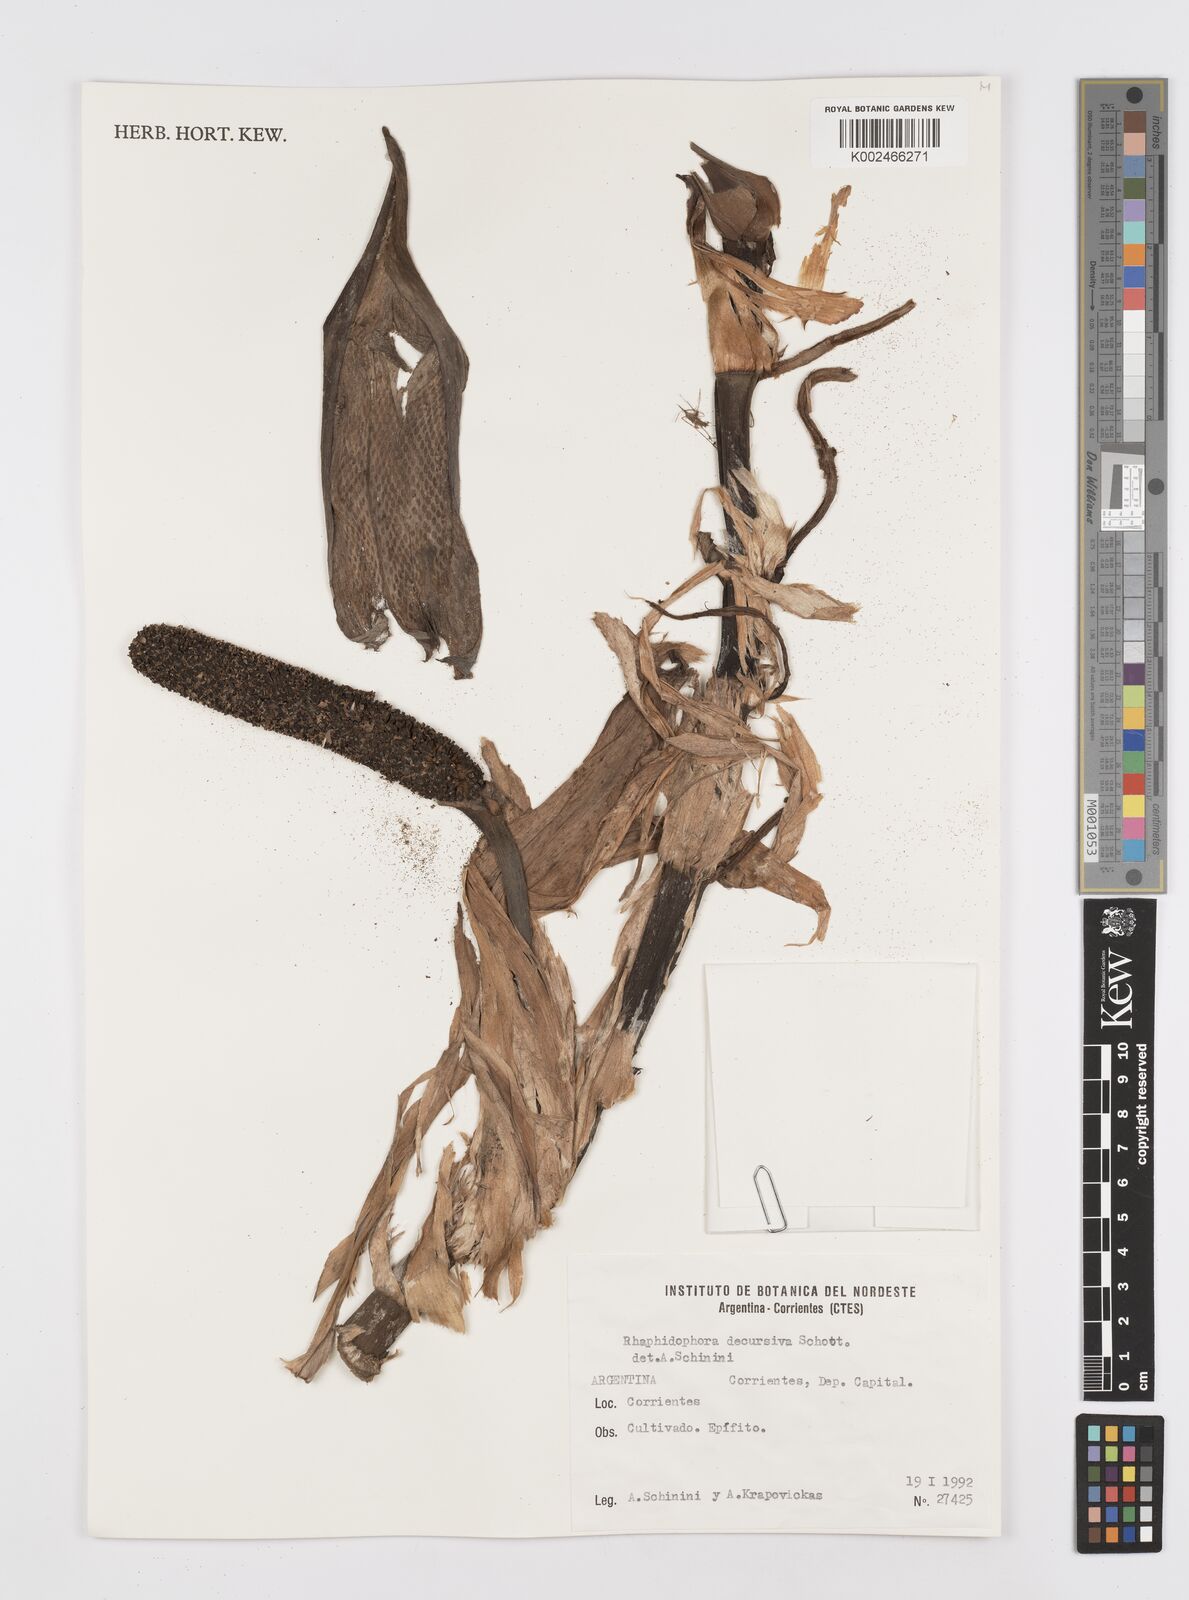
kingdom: Plantae
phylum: Tracheophyta
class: Liliopsida
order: Alismatales
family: Araceae
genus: Rhaphidophora
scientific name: Rhaphidophora decursiva
